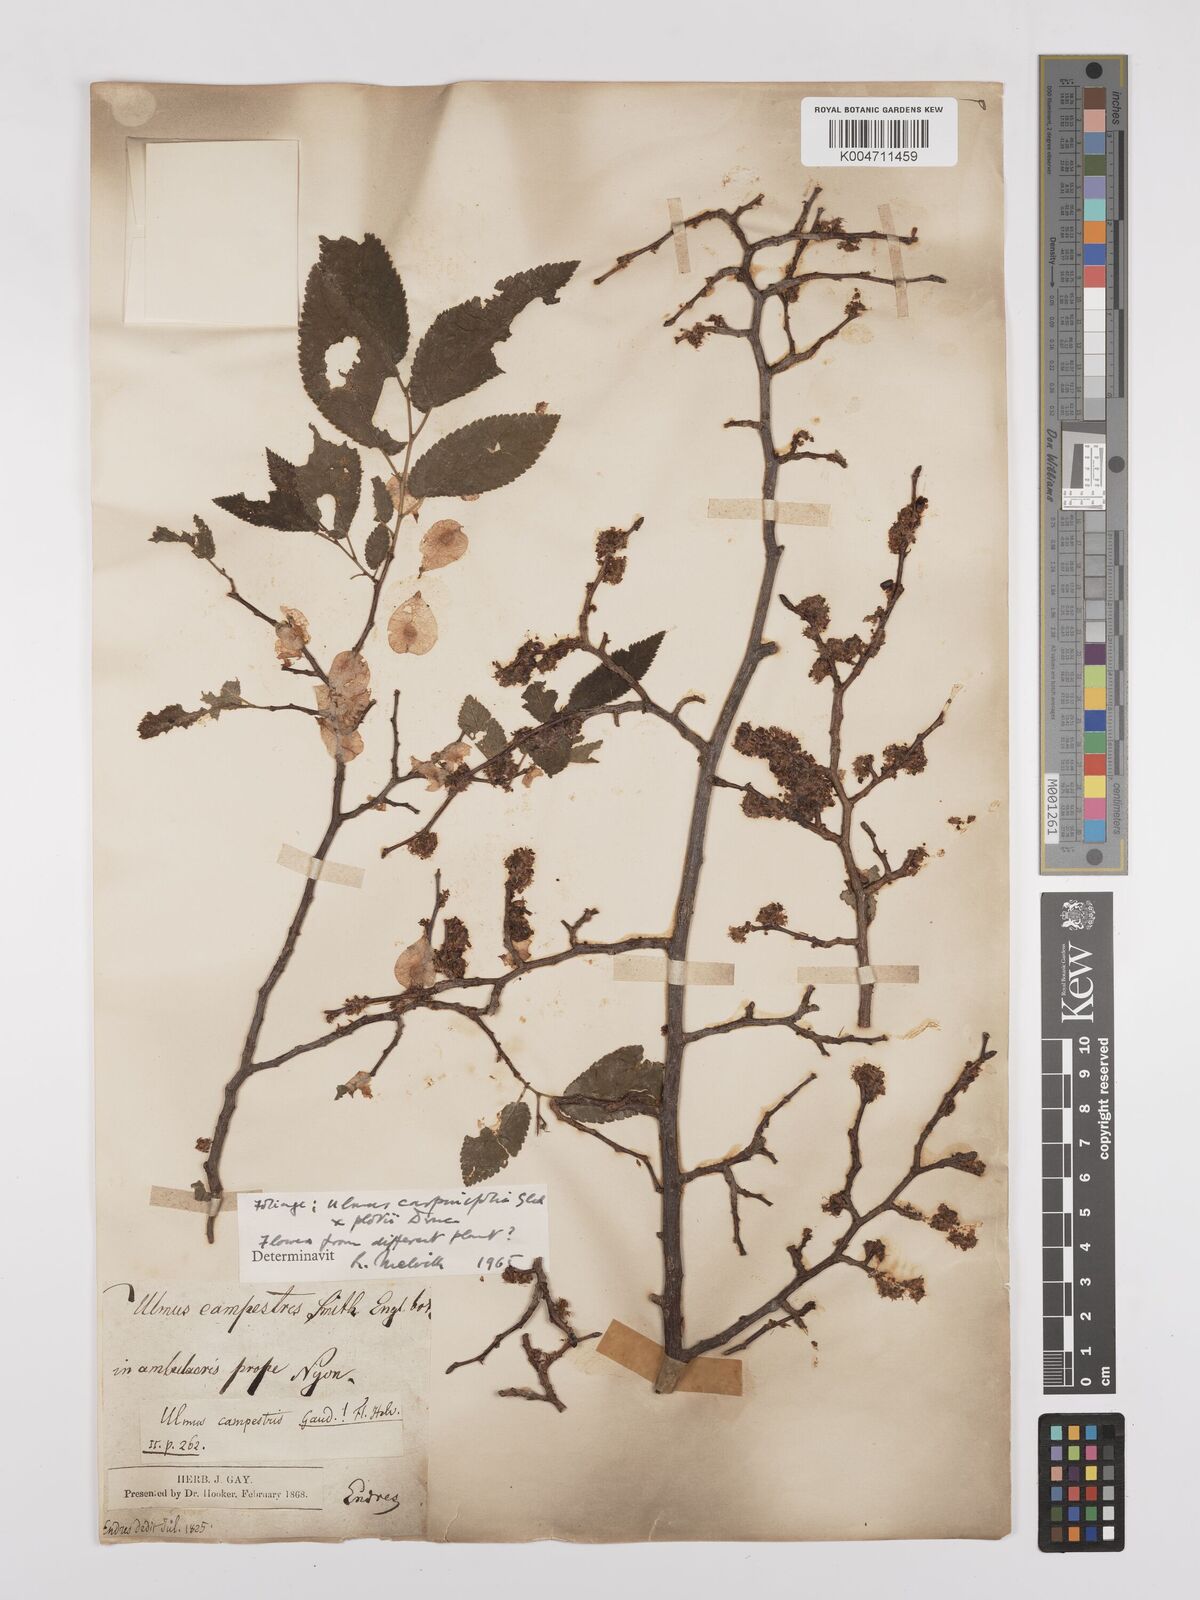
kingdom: Plantae
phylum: Tracheophyta
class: Magnoliopsida
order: Rosales
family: Ulmaceae
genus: Ulmus
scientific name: Ulmus minor
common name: Small-leaved elm
